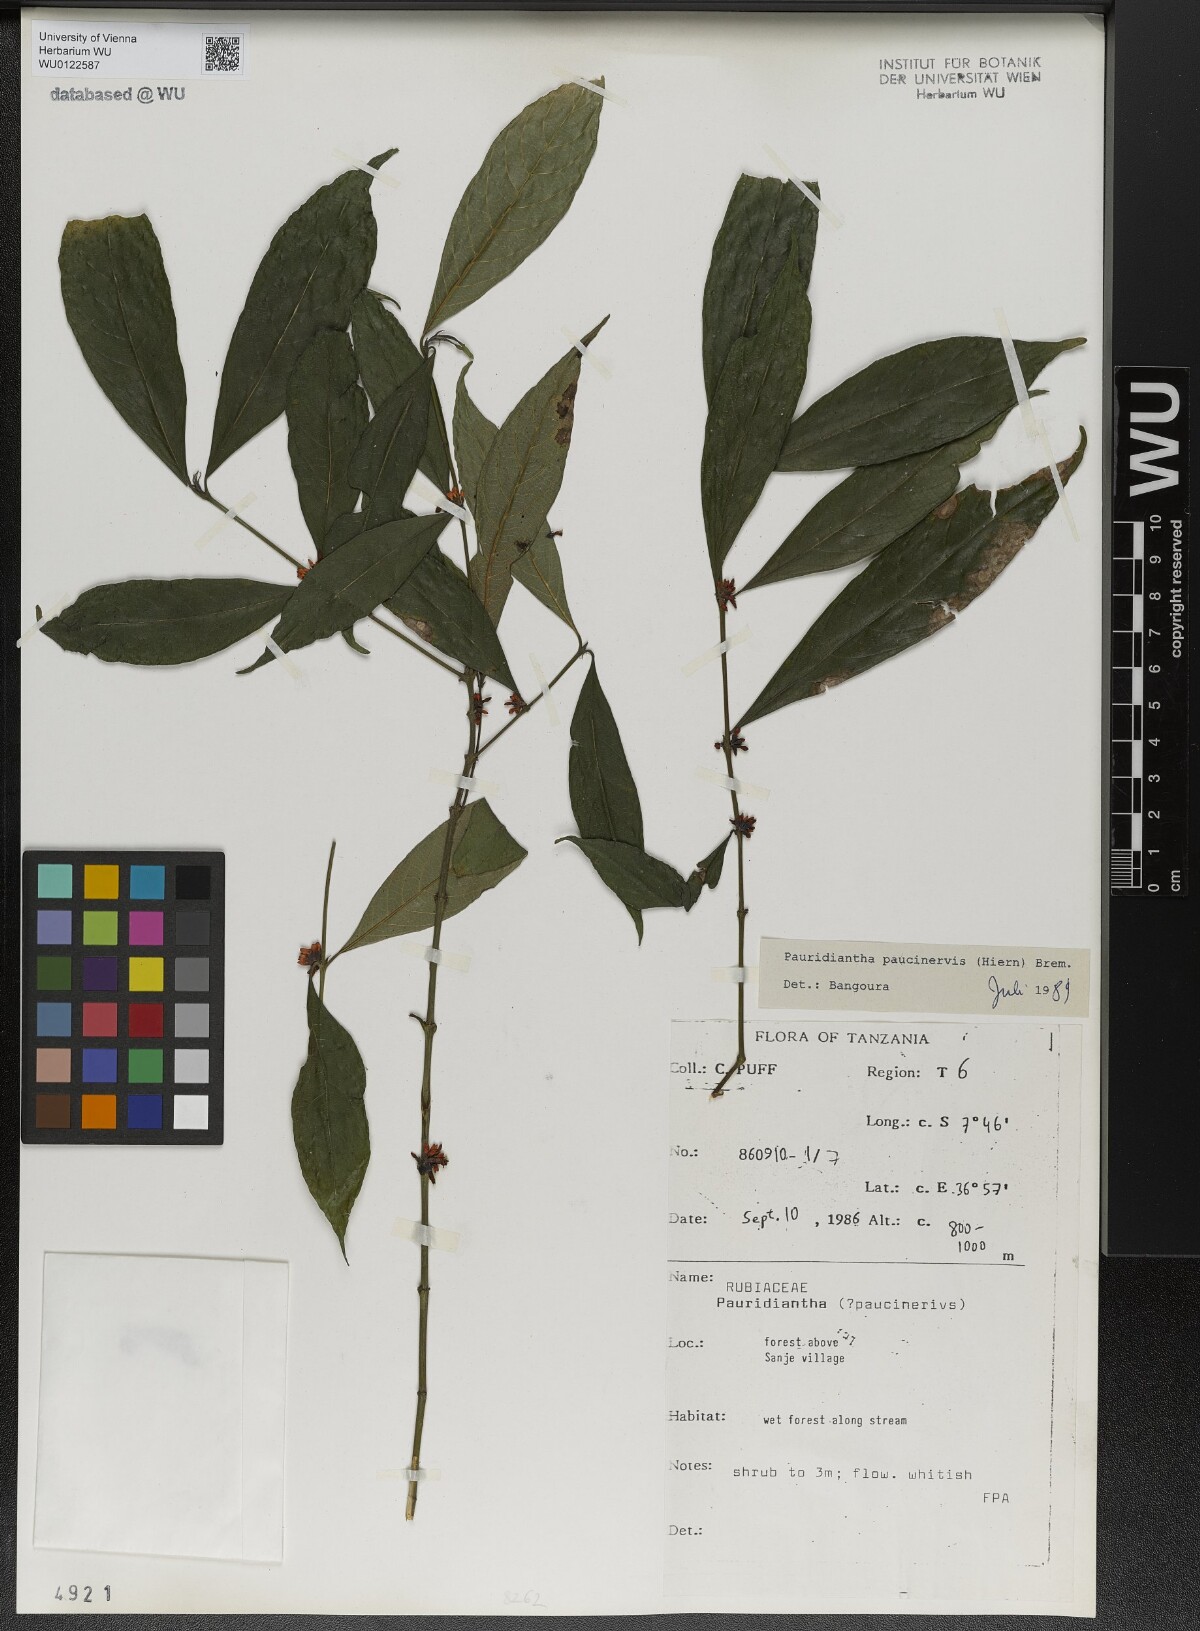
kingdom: Plantae
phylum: Tracheophyta
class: Magnoliopsida
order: Gentianales
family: Rubiaceae
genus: Pauridiantha
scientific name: Pauridiantha paucinervis
